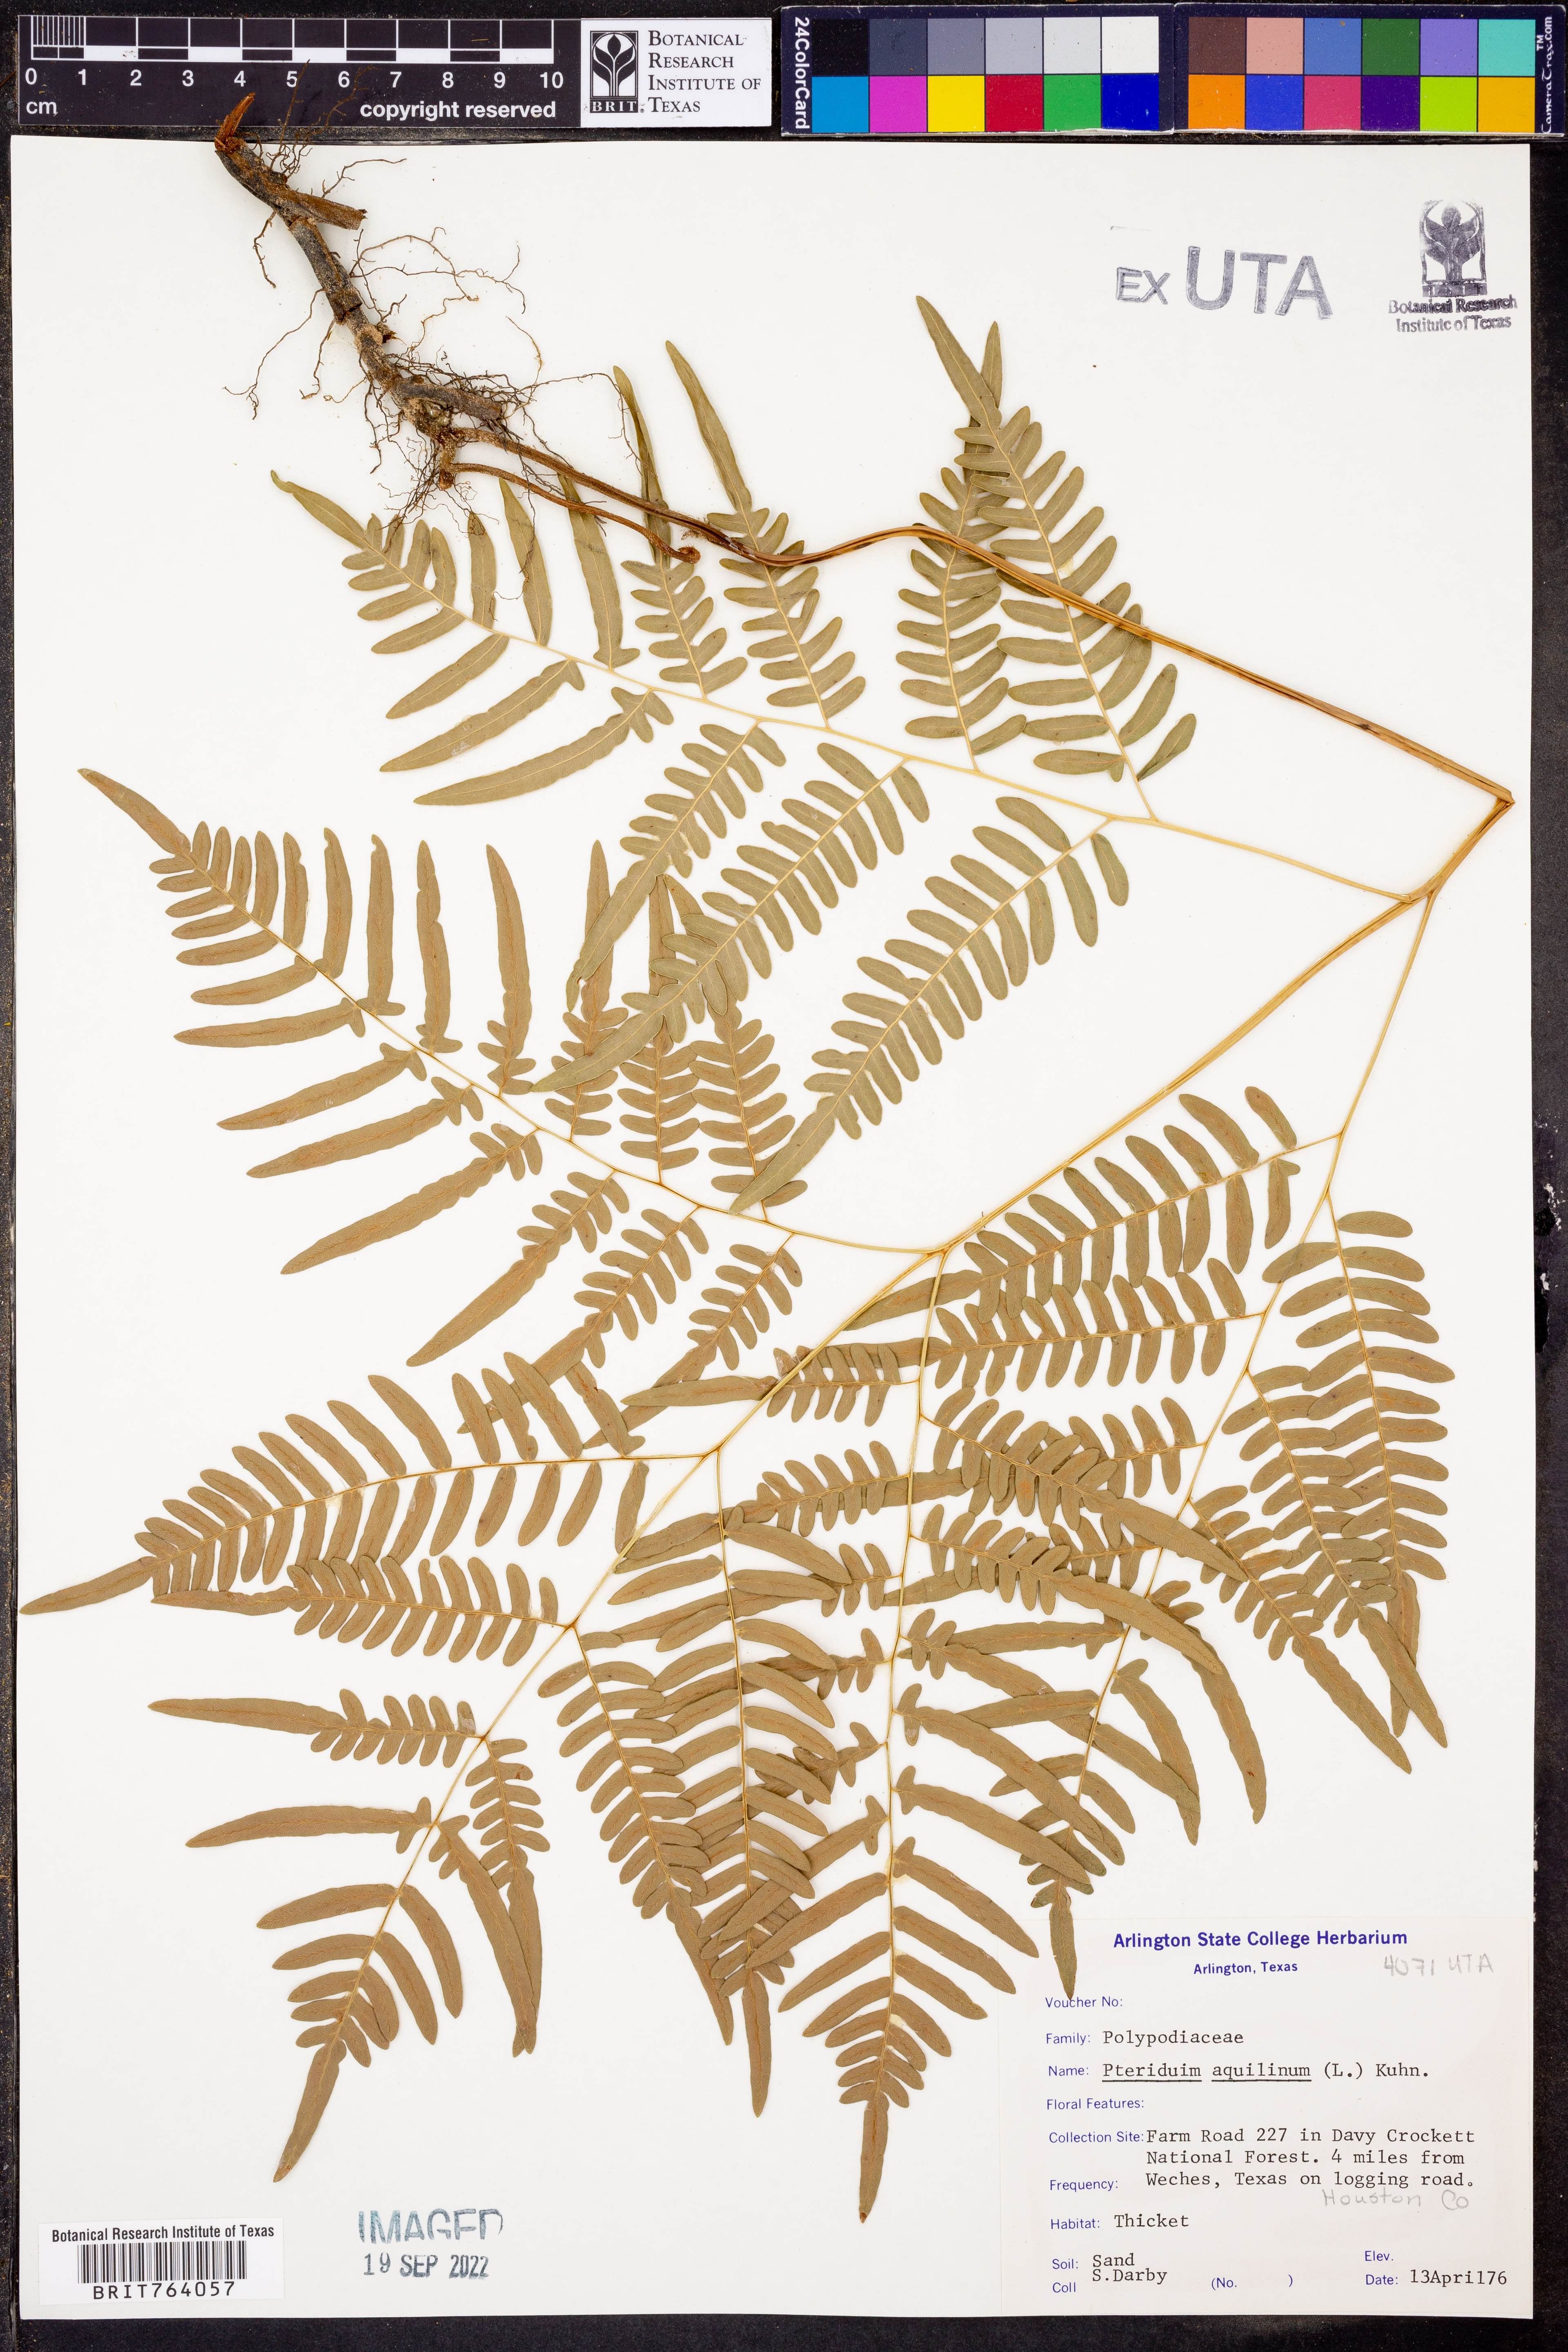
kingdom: Plantae
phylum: Tracheophyta
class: Polypodiopsida
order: Polypodiales
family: Dennstaedtiaceae
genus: Pteridium
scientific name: Pteridium aquilinum
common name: Bracken
